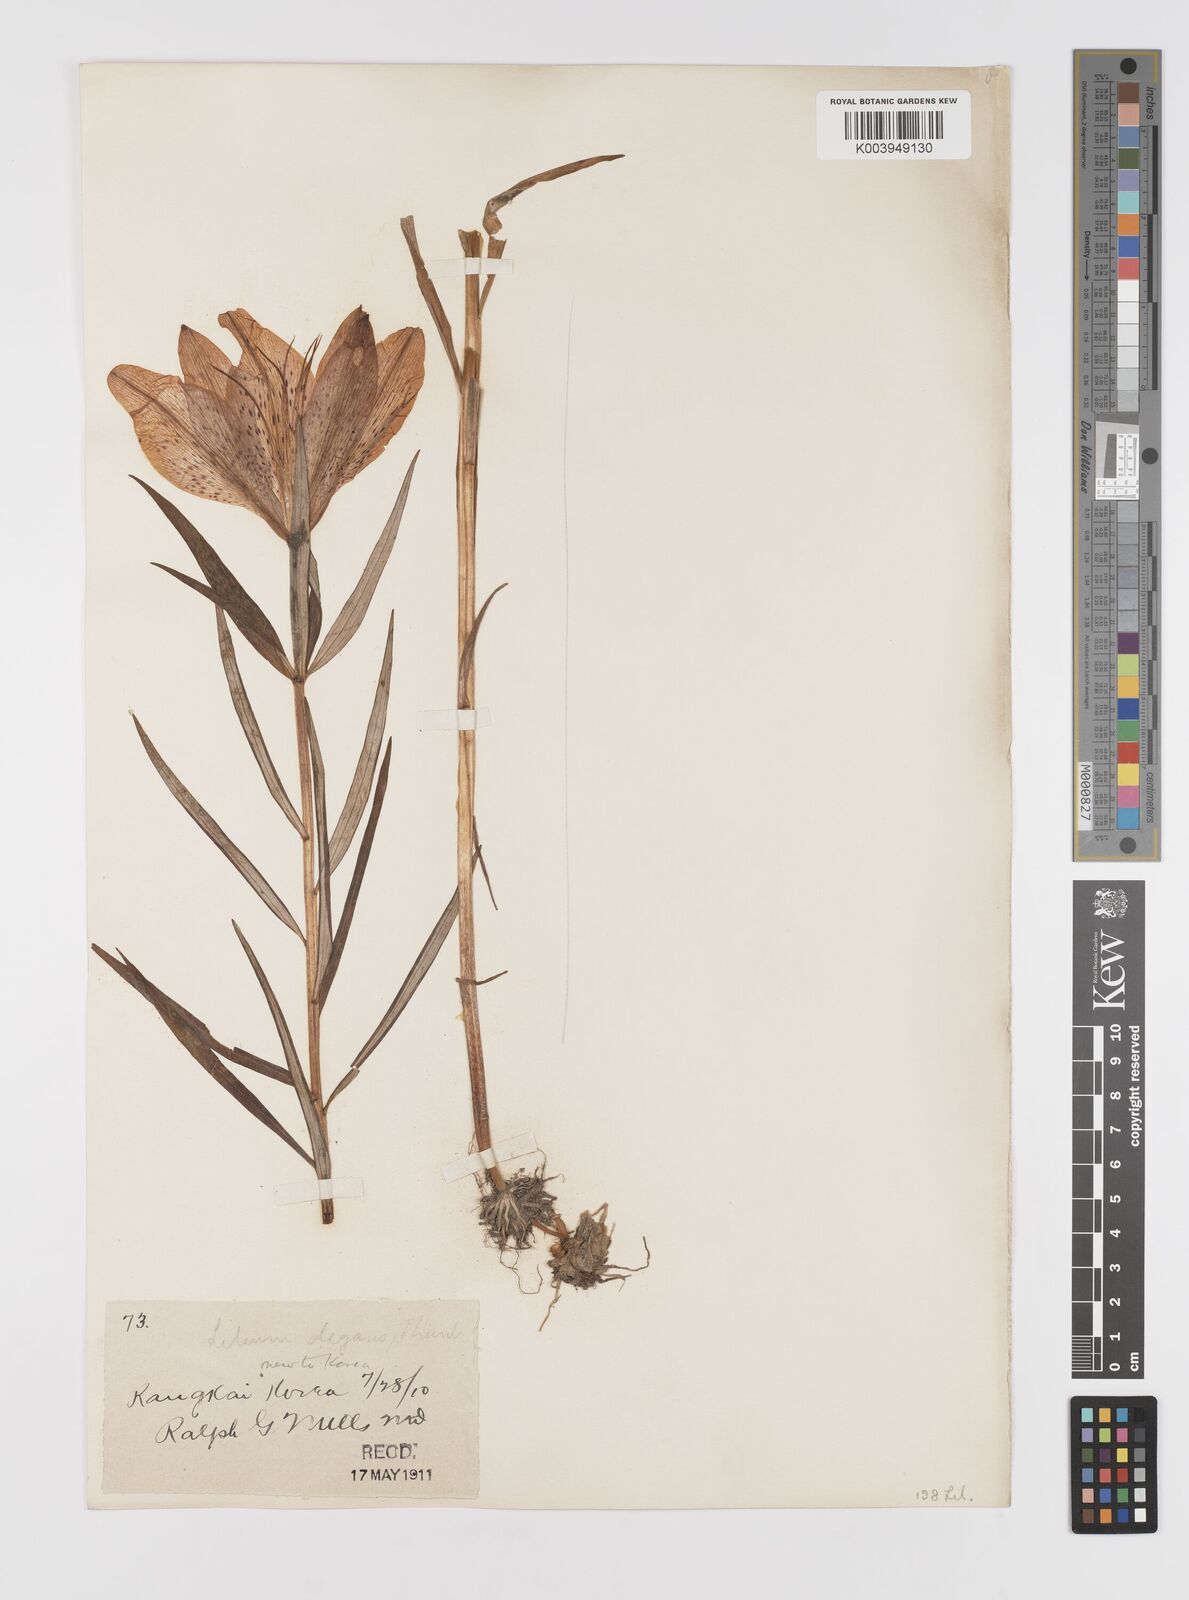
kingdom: Plantae
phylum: Tracheophyta
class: Liliopsida
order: Liliales
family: Liliaceae
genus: Lilium
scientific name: Lilium pensylvanicum
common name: Candlestick lily
